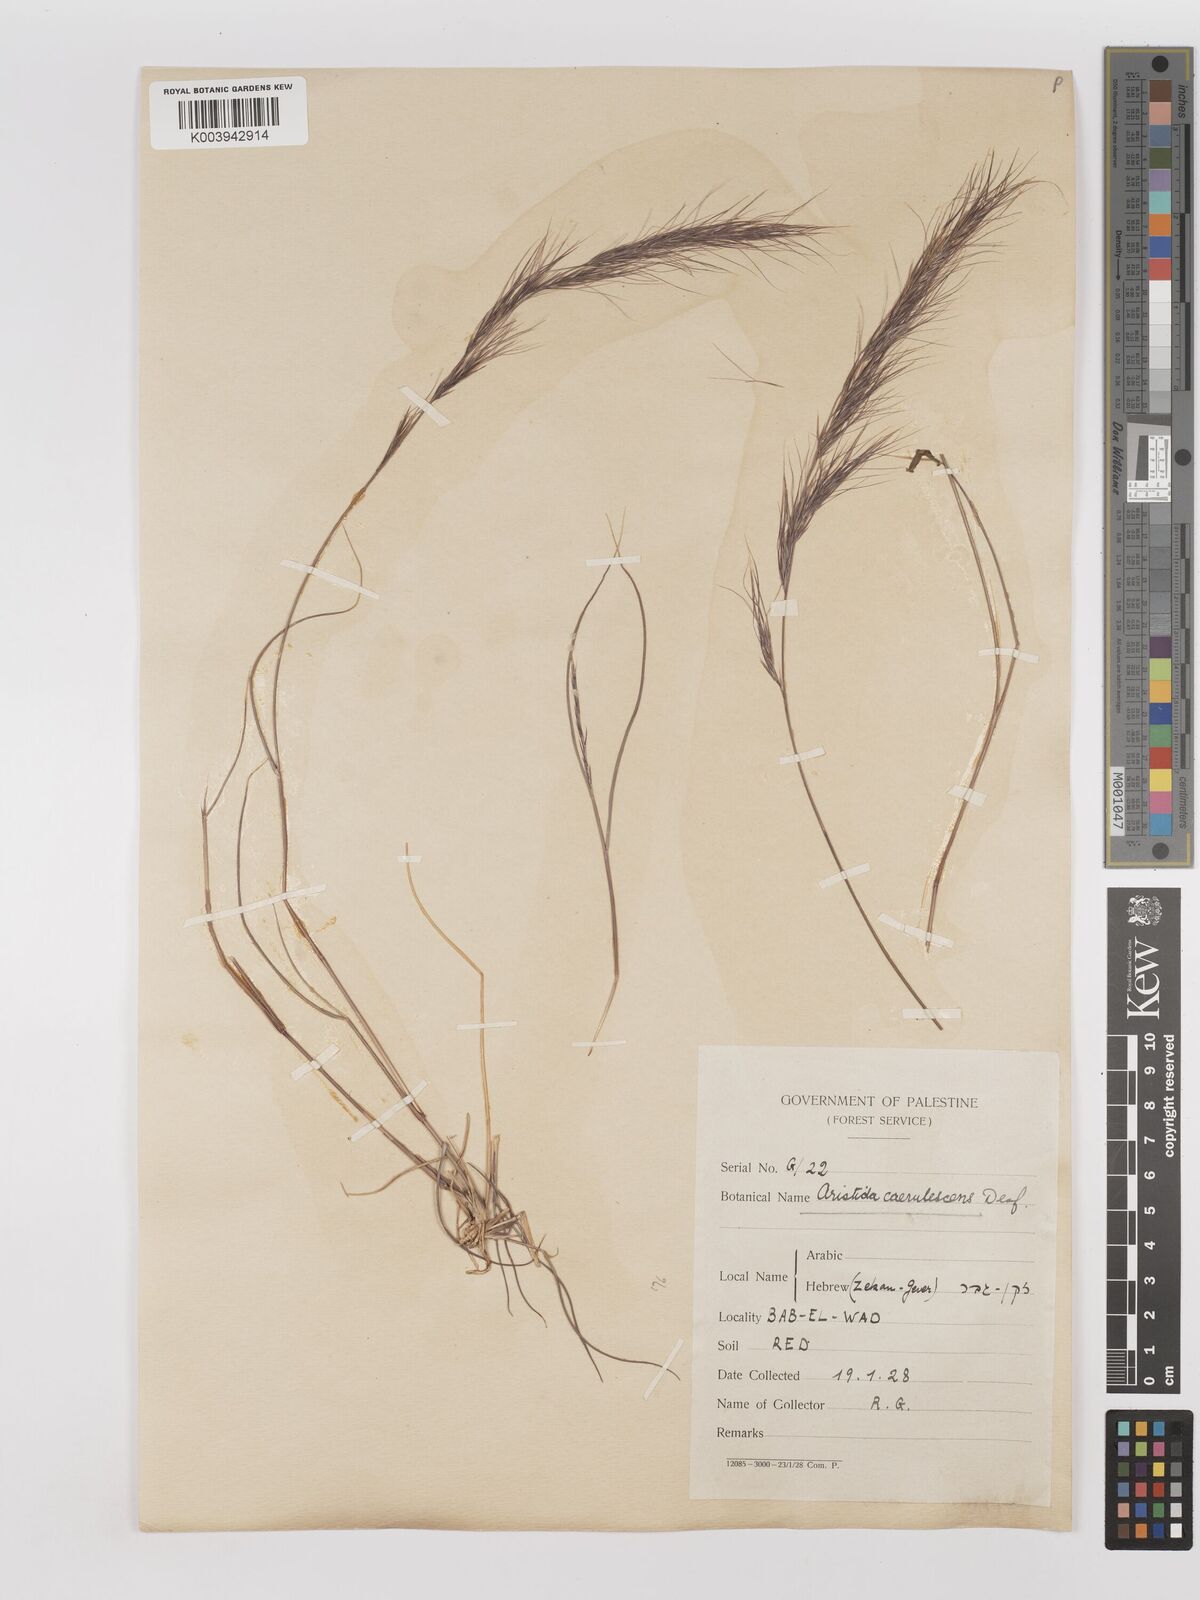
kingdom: Plantae
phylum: Tracheophyta
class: Liliopsida
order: Poales
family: Poaceae
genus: Aristida
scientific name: Aristida adscensionis
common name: Sixweeks threeawn
